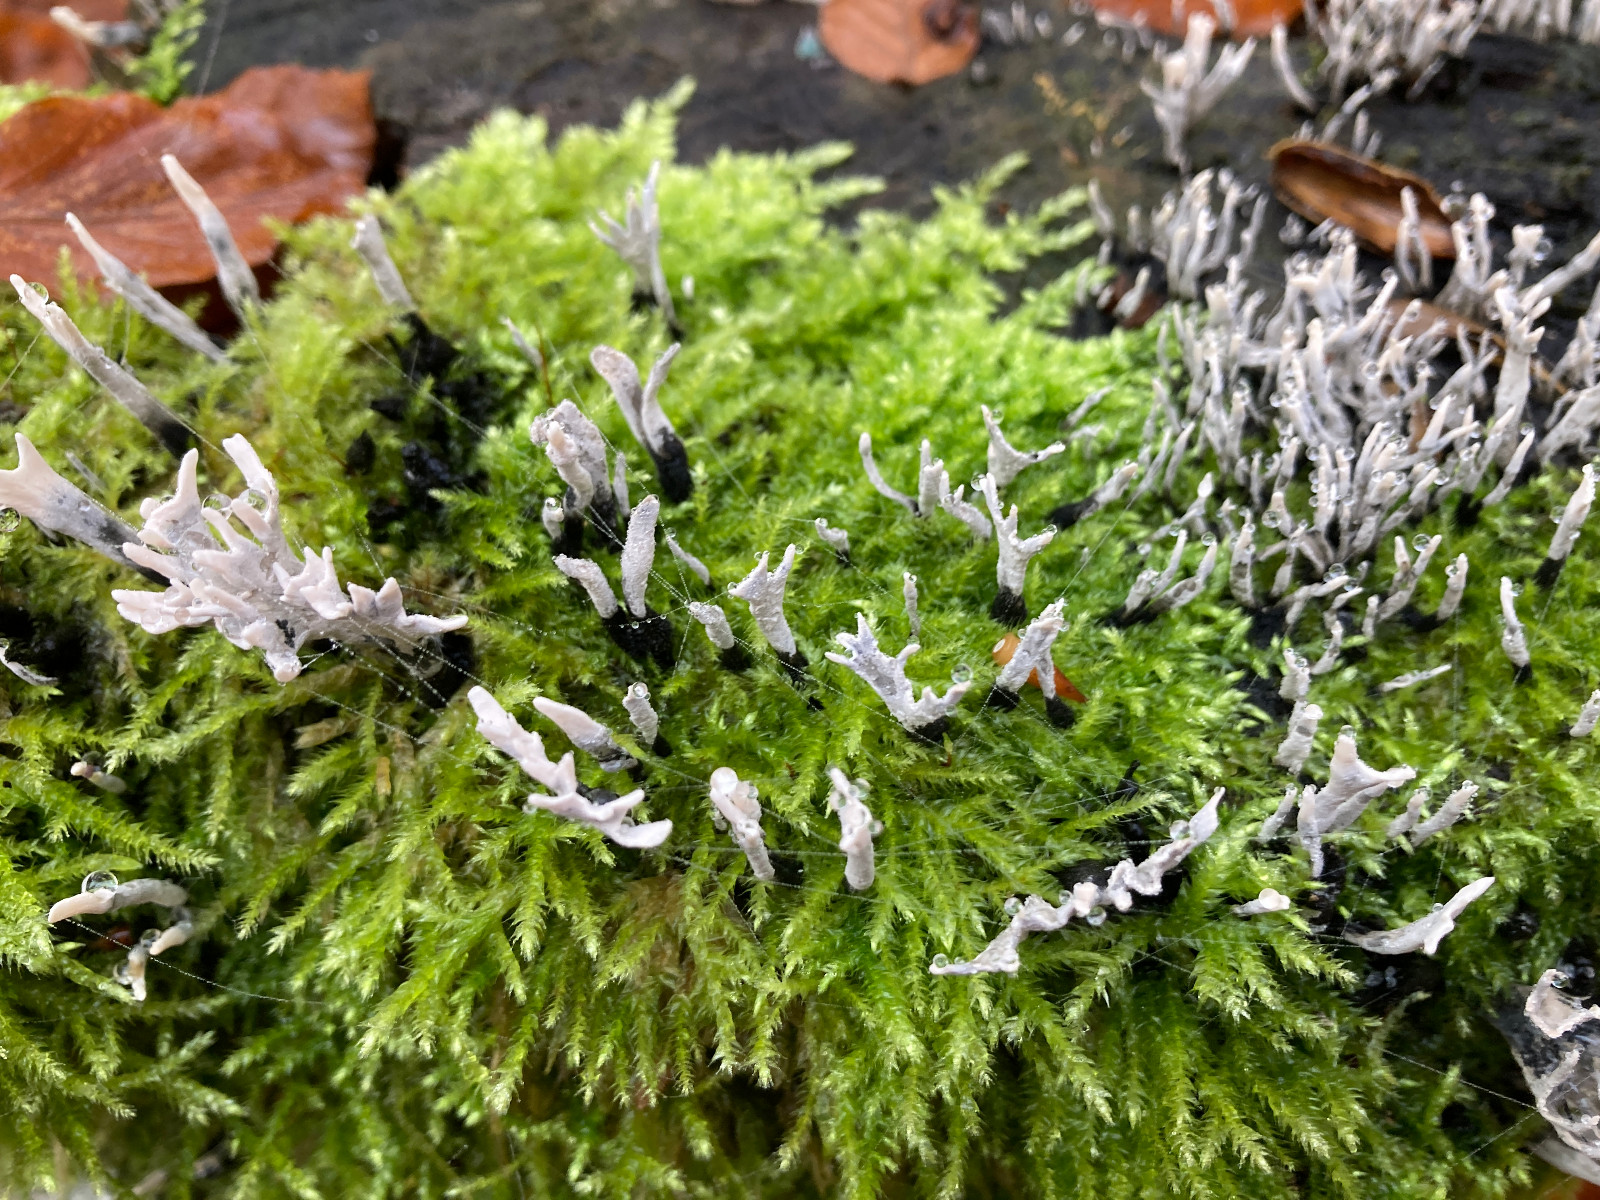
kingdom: Fungi
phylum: Ascomycota
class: Sordariomycetes
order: Xylariales
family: Xylariaceae
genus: Xylaria
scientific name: Xylaria hypoxylon
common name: grenet stødsvamp
